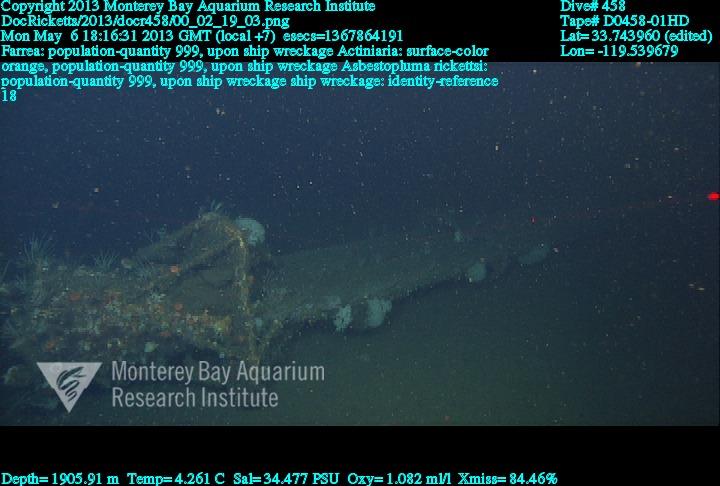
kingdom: Animalia
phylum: Porifera
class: Hexactinellida
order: Sceptrulophora
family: Farreidae
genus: Farrea
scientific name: Farrea
